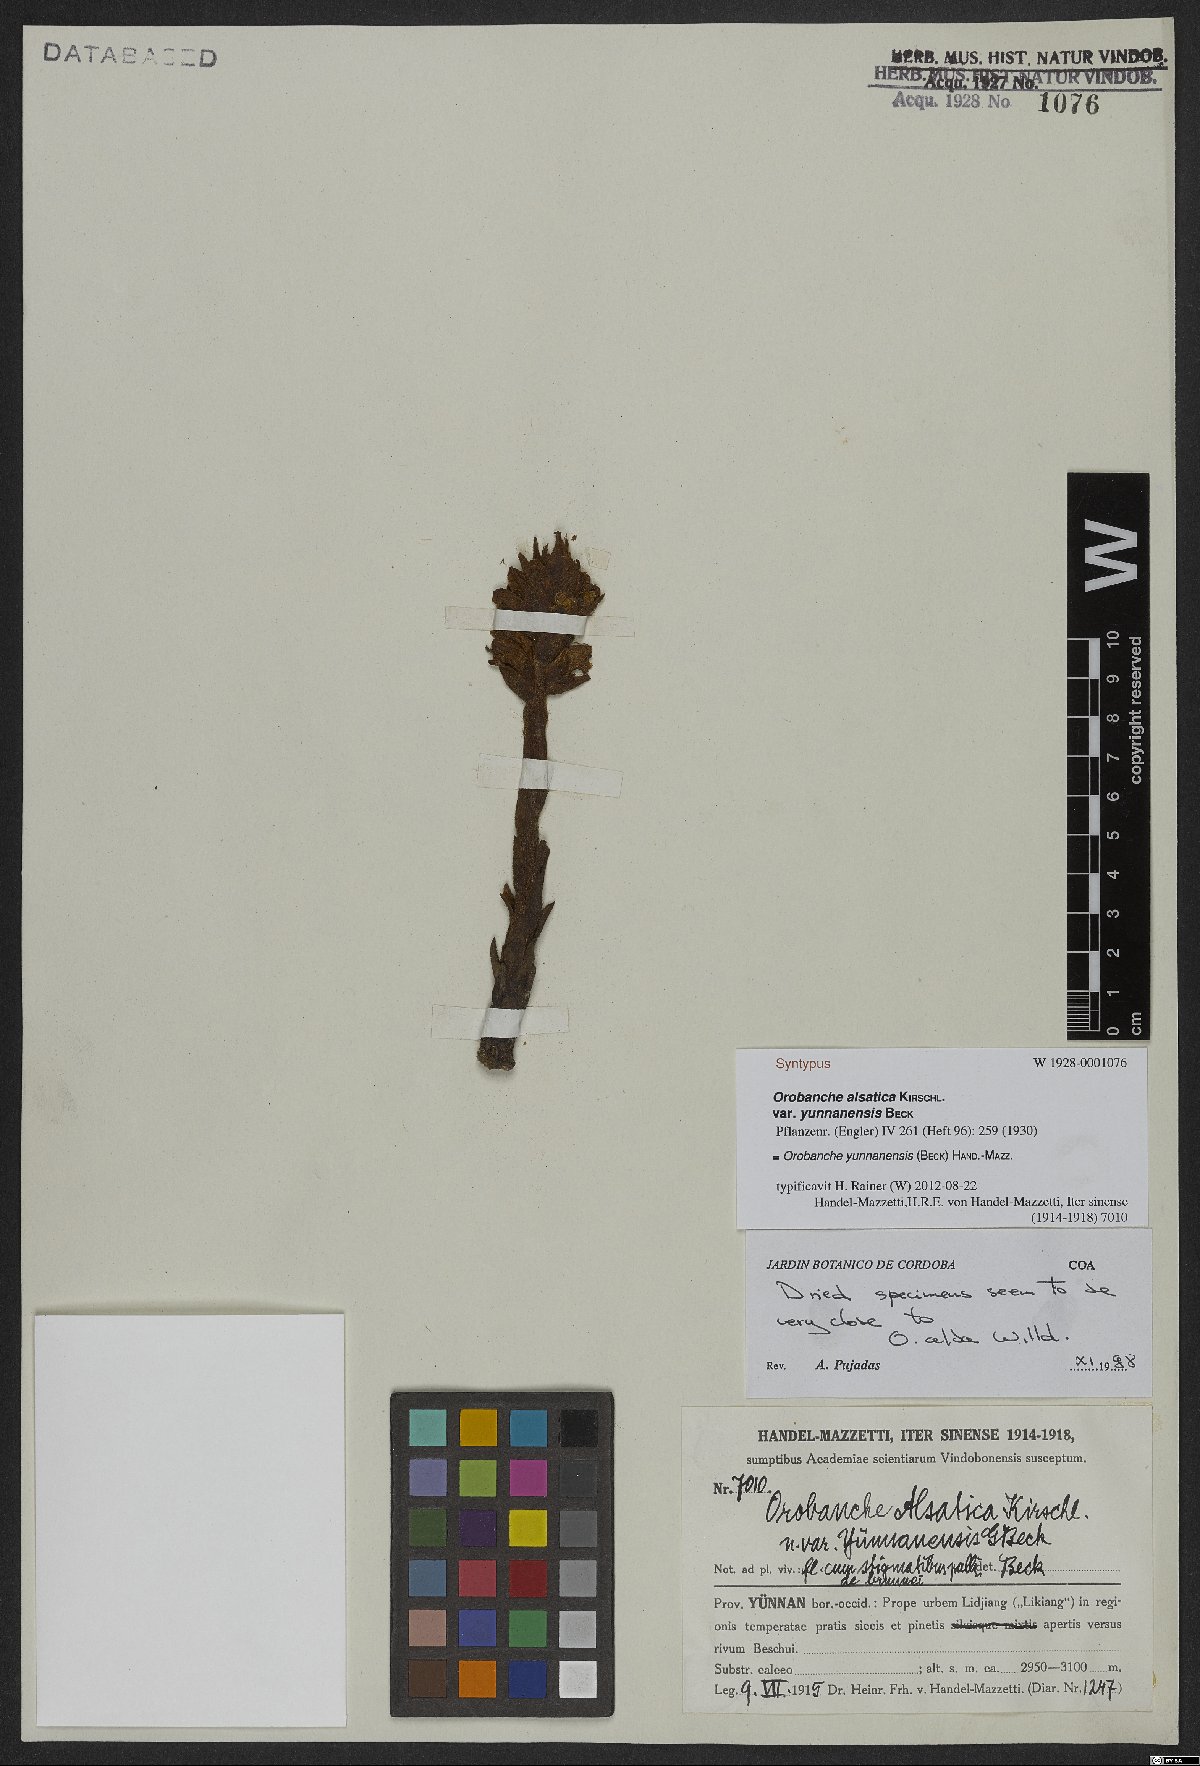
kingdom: Plantae
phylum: Tracheophyta
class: Magnoliopsida
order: Lamiales
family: Orobanchaceae
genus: Orobanche
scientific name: Orobanche yunnanensis
